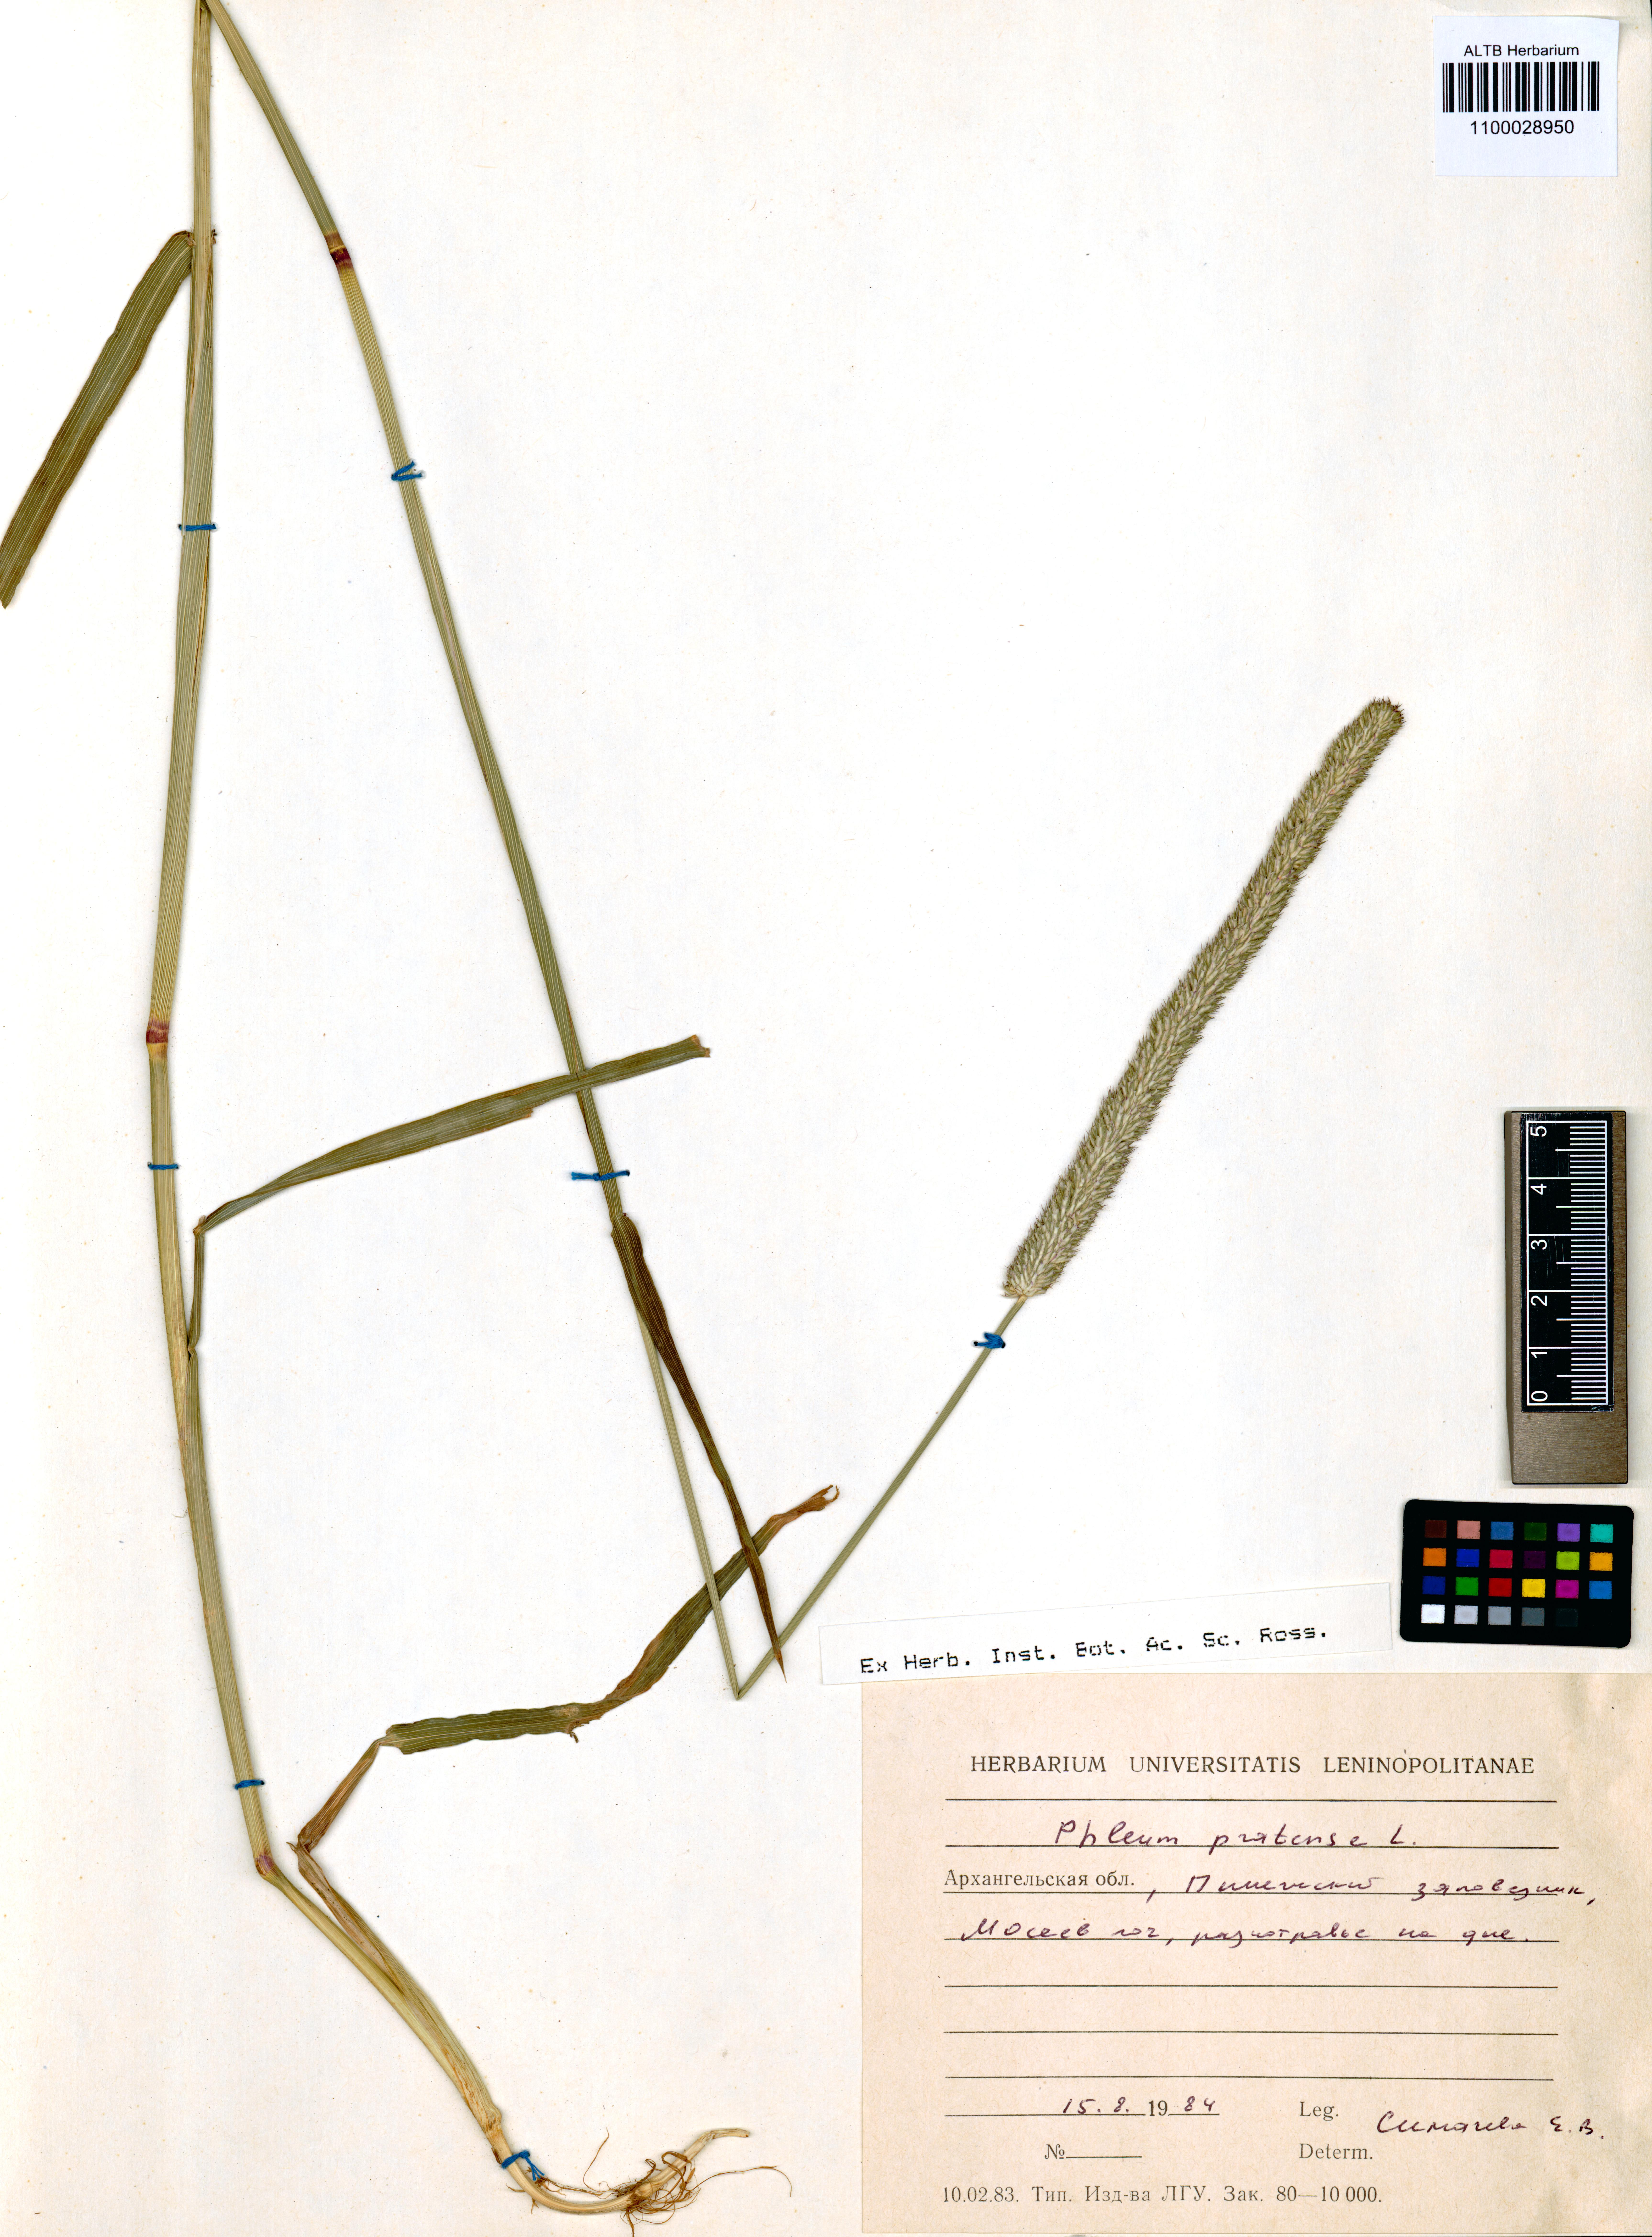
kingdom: Plantae
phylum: Tracheophyta
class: Liliopsida
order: Poales
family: Poaceae
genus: Phleum
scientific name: Phleum pratense
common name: Timothy grass
